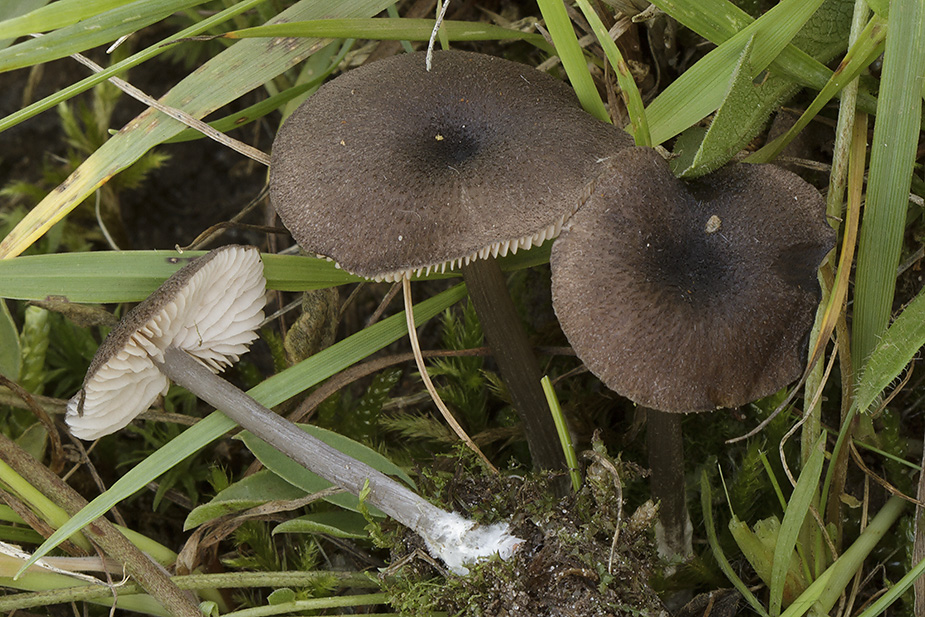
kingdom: Fungi
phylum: Basidiomycota
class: Agaricomycetes
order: Agaricales
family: Entolomataceae
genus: Entoloma
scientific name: Entoloma porphyrogriseum
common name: porfyrgrå rødblad
